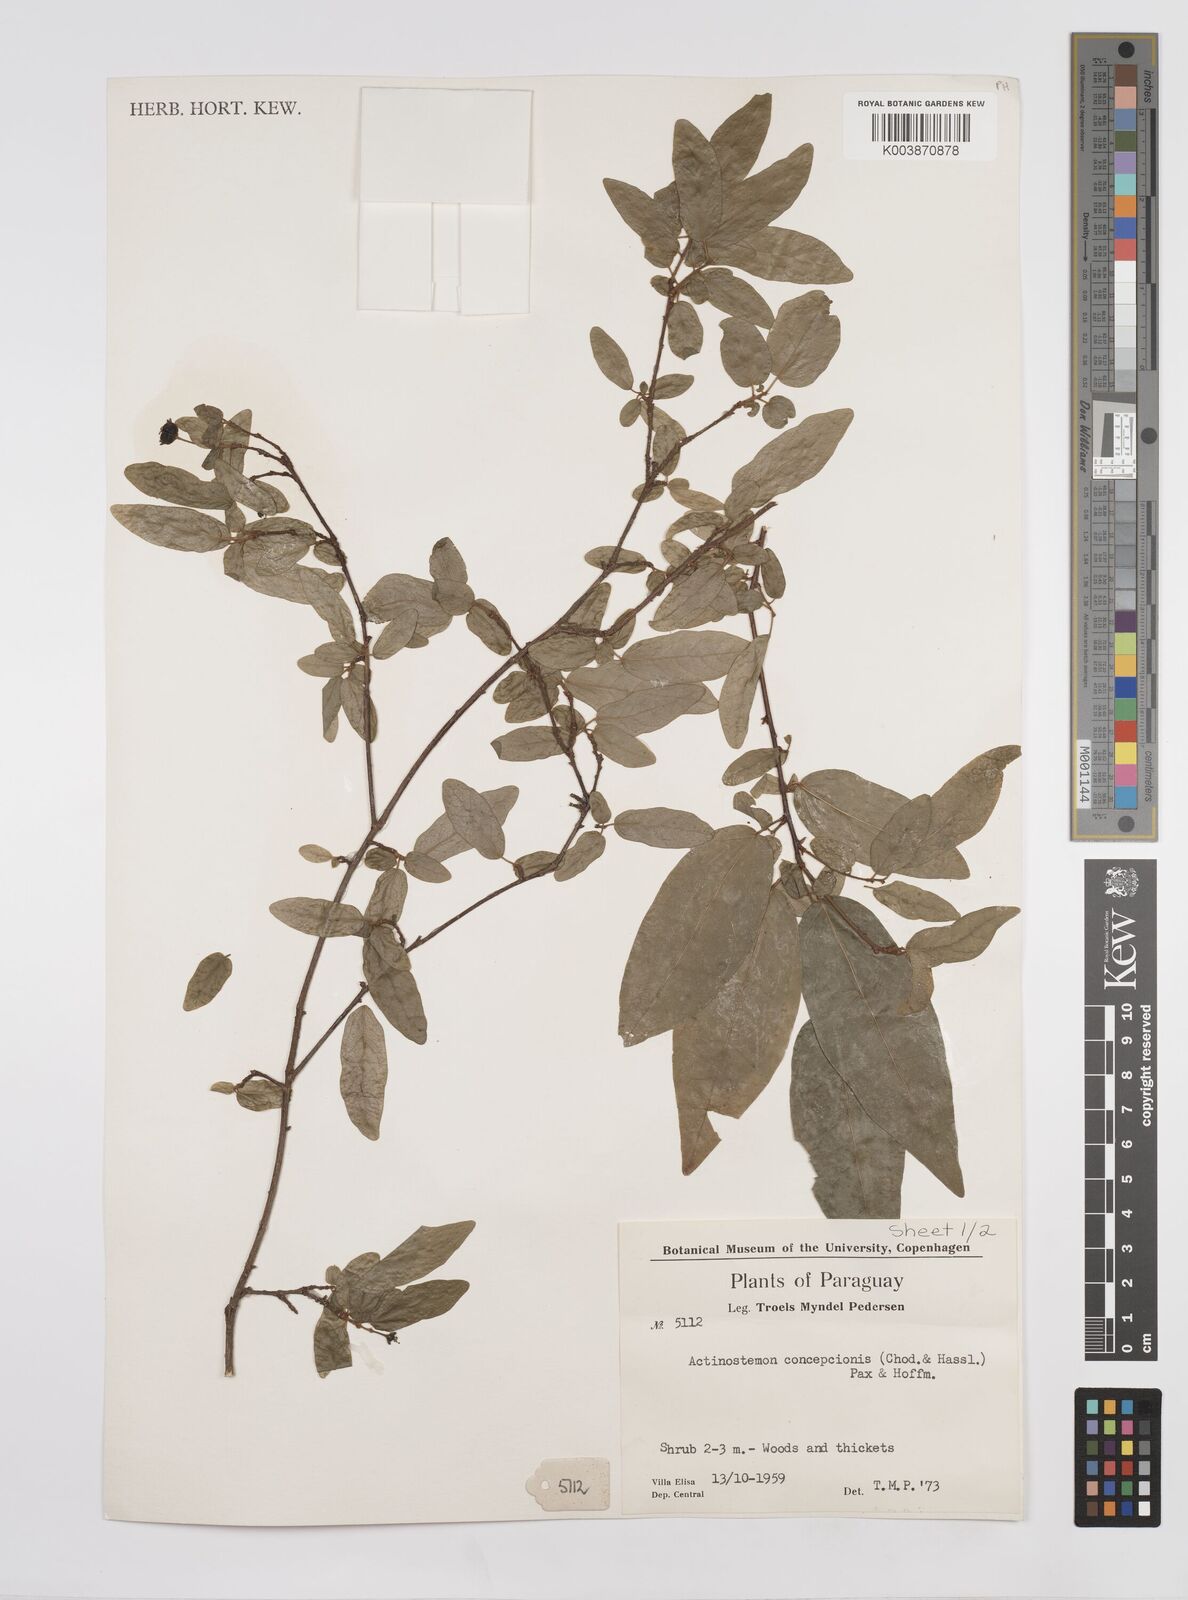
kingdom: Plantae
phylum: Tracheophyta
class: Magnoliopsida
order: Malpighiales
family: Euphorbiaceae
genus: Actinostemon
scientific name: Actinostemon concepcionis
